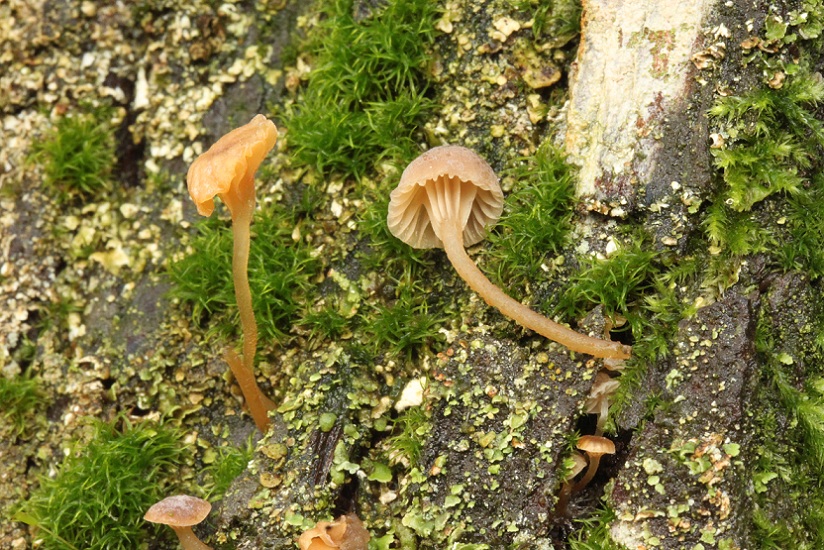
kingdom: Fungi
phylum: Basidiomycota
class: Agaricomycetes
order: Agaricales
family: Porotheleaceae
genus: Phloeomana
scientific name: Phloeomana clavata
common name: brunbladet huesvamp
